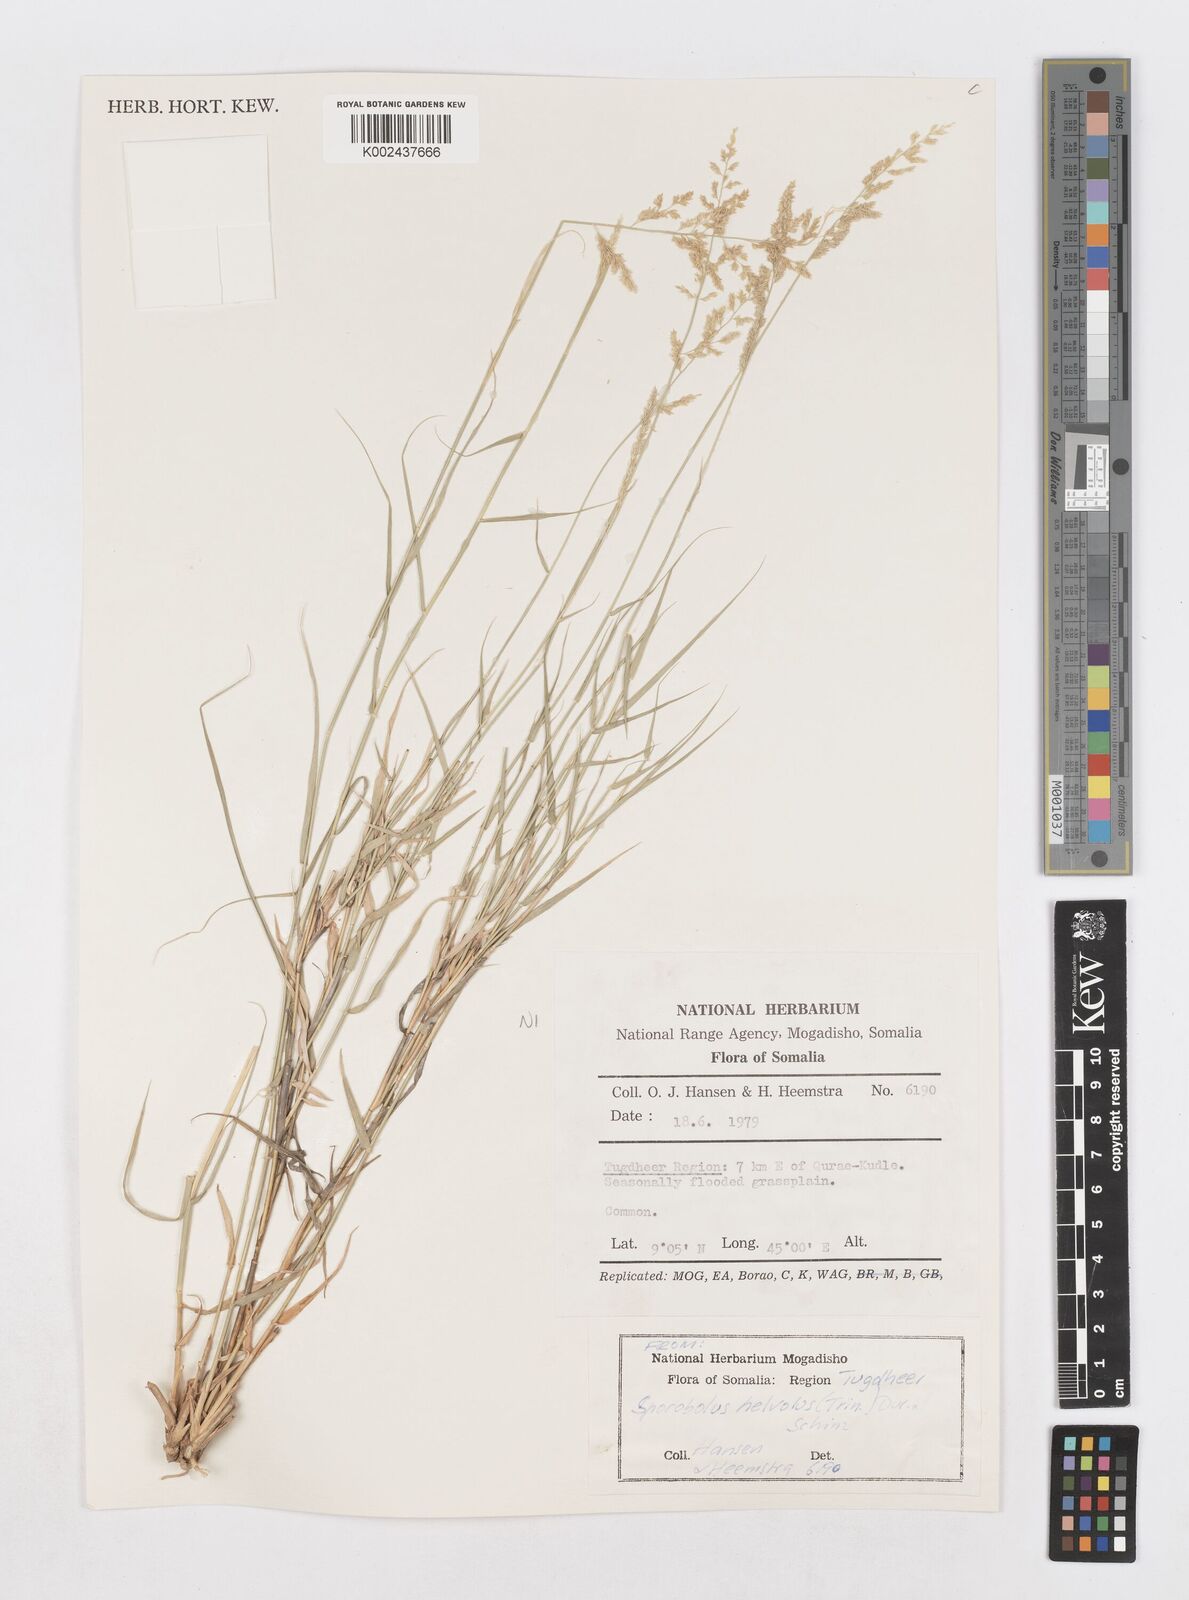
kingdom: Plantae
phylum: Tracheophyta
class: Liliopsida
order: Poales
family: Poaceae
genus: Sporobolus
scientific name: Sporobolus helvolus
